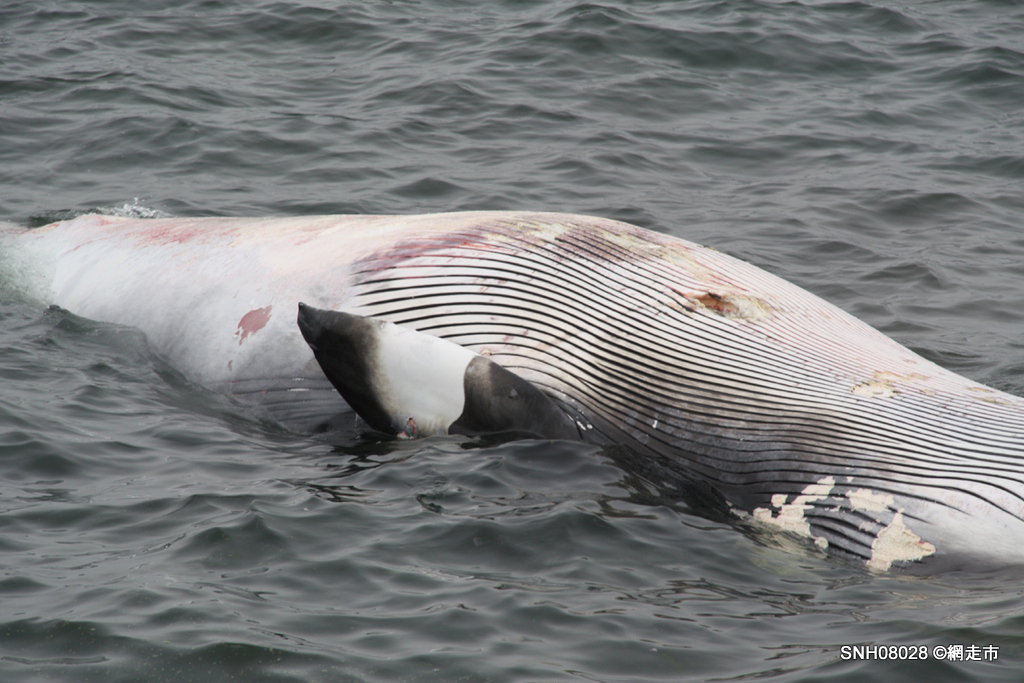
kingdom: Animalia
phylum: Chordata
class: Mammalia
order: Cetacea
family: Balaenopteridae
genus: Balaenoptera
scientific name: Balaenoptera acutorostrata
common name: Minke whale
